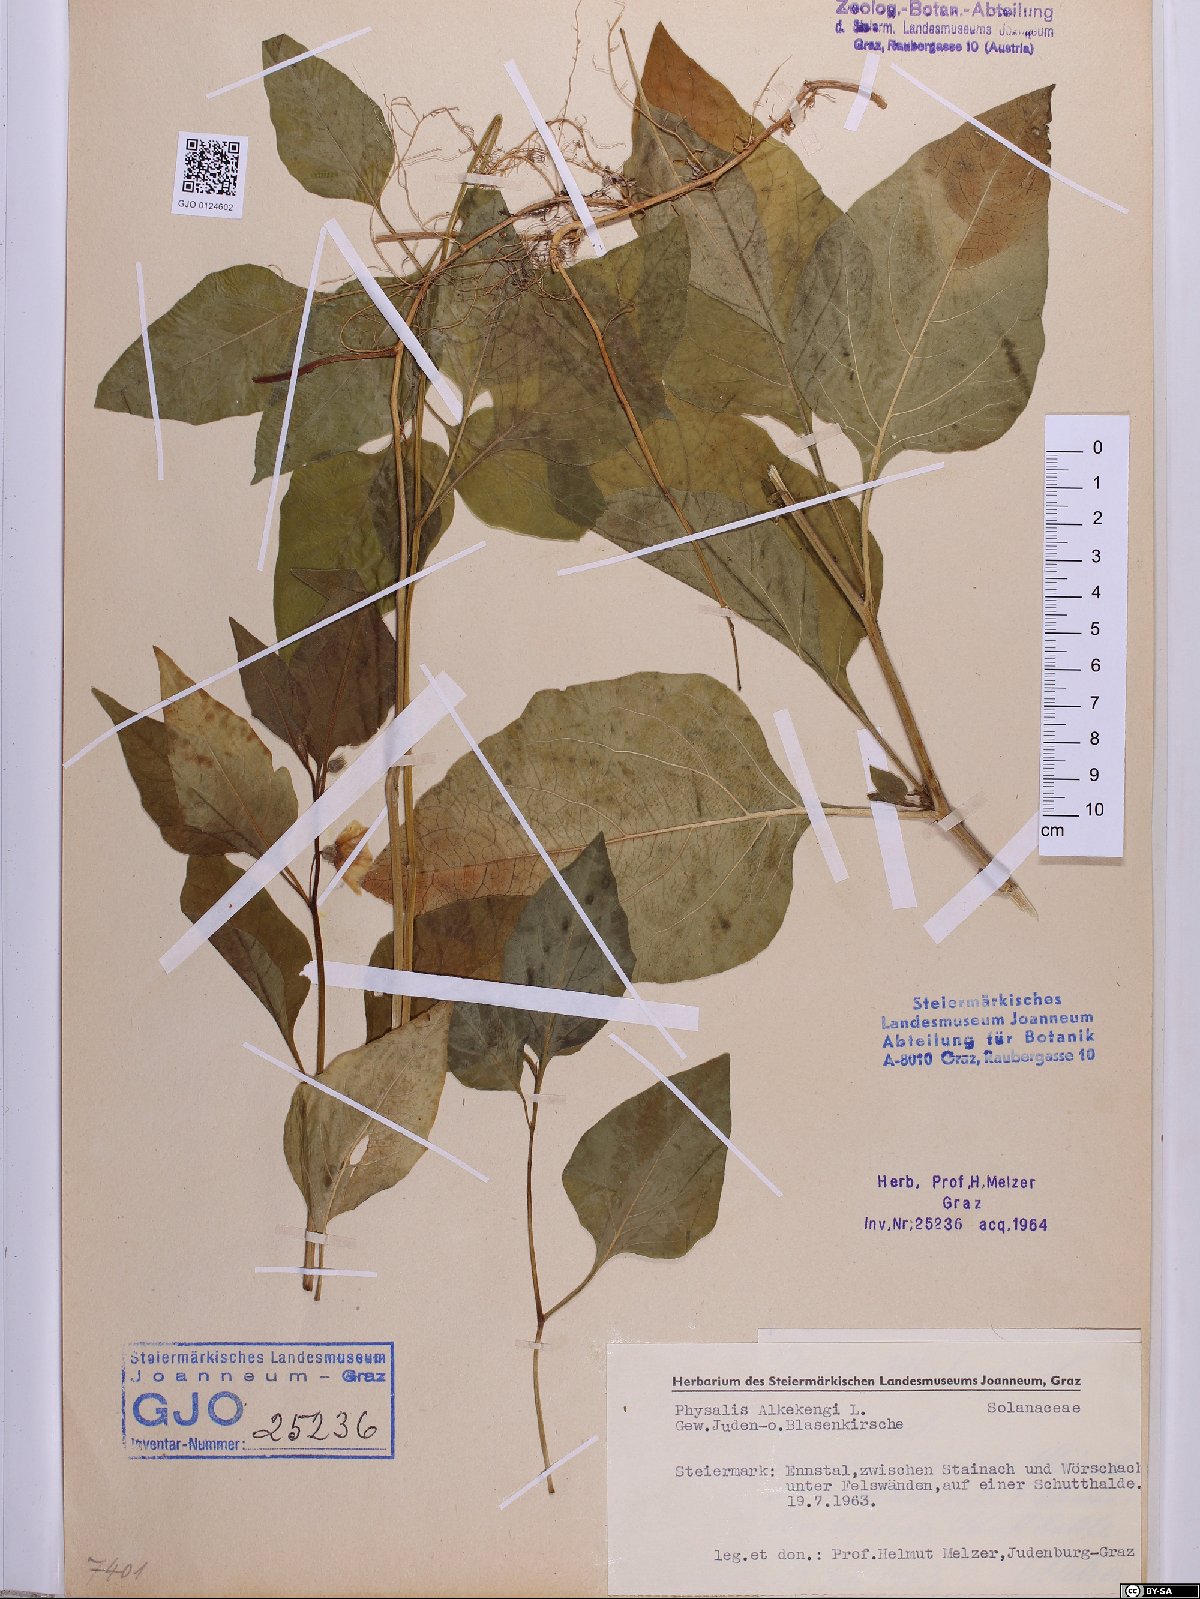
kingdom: Plantae
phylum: Tracheophyta
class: Magnoliopsida
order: Solanales
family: Solanaceae
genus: Alkekengi
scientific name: Alkekengi officinarum
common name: Japanese-lantern
